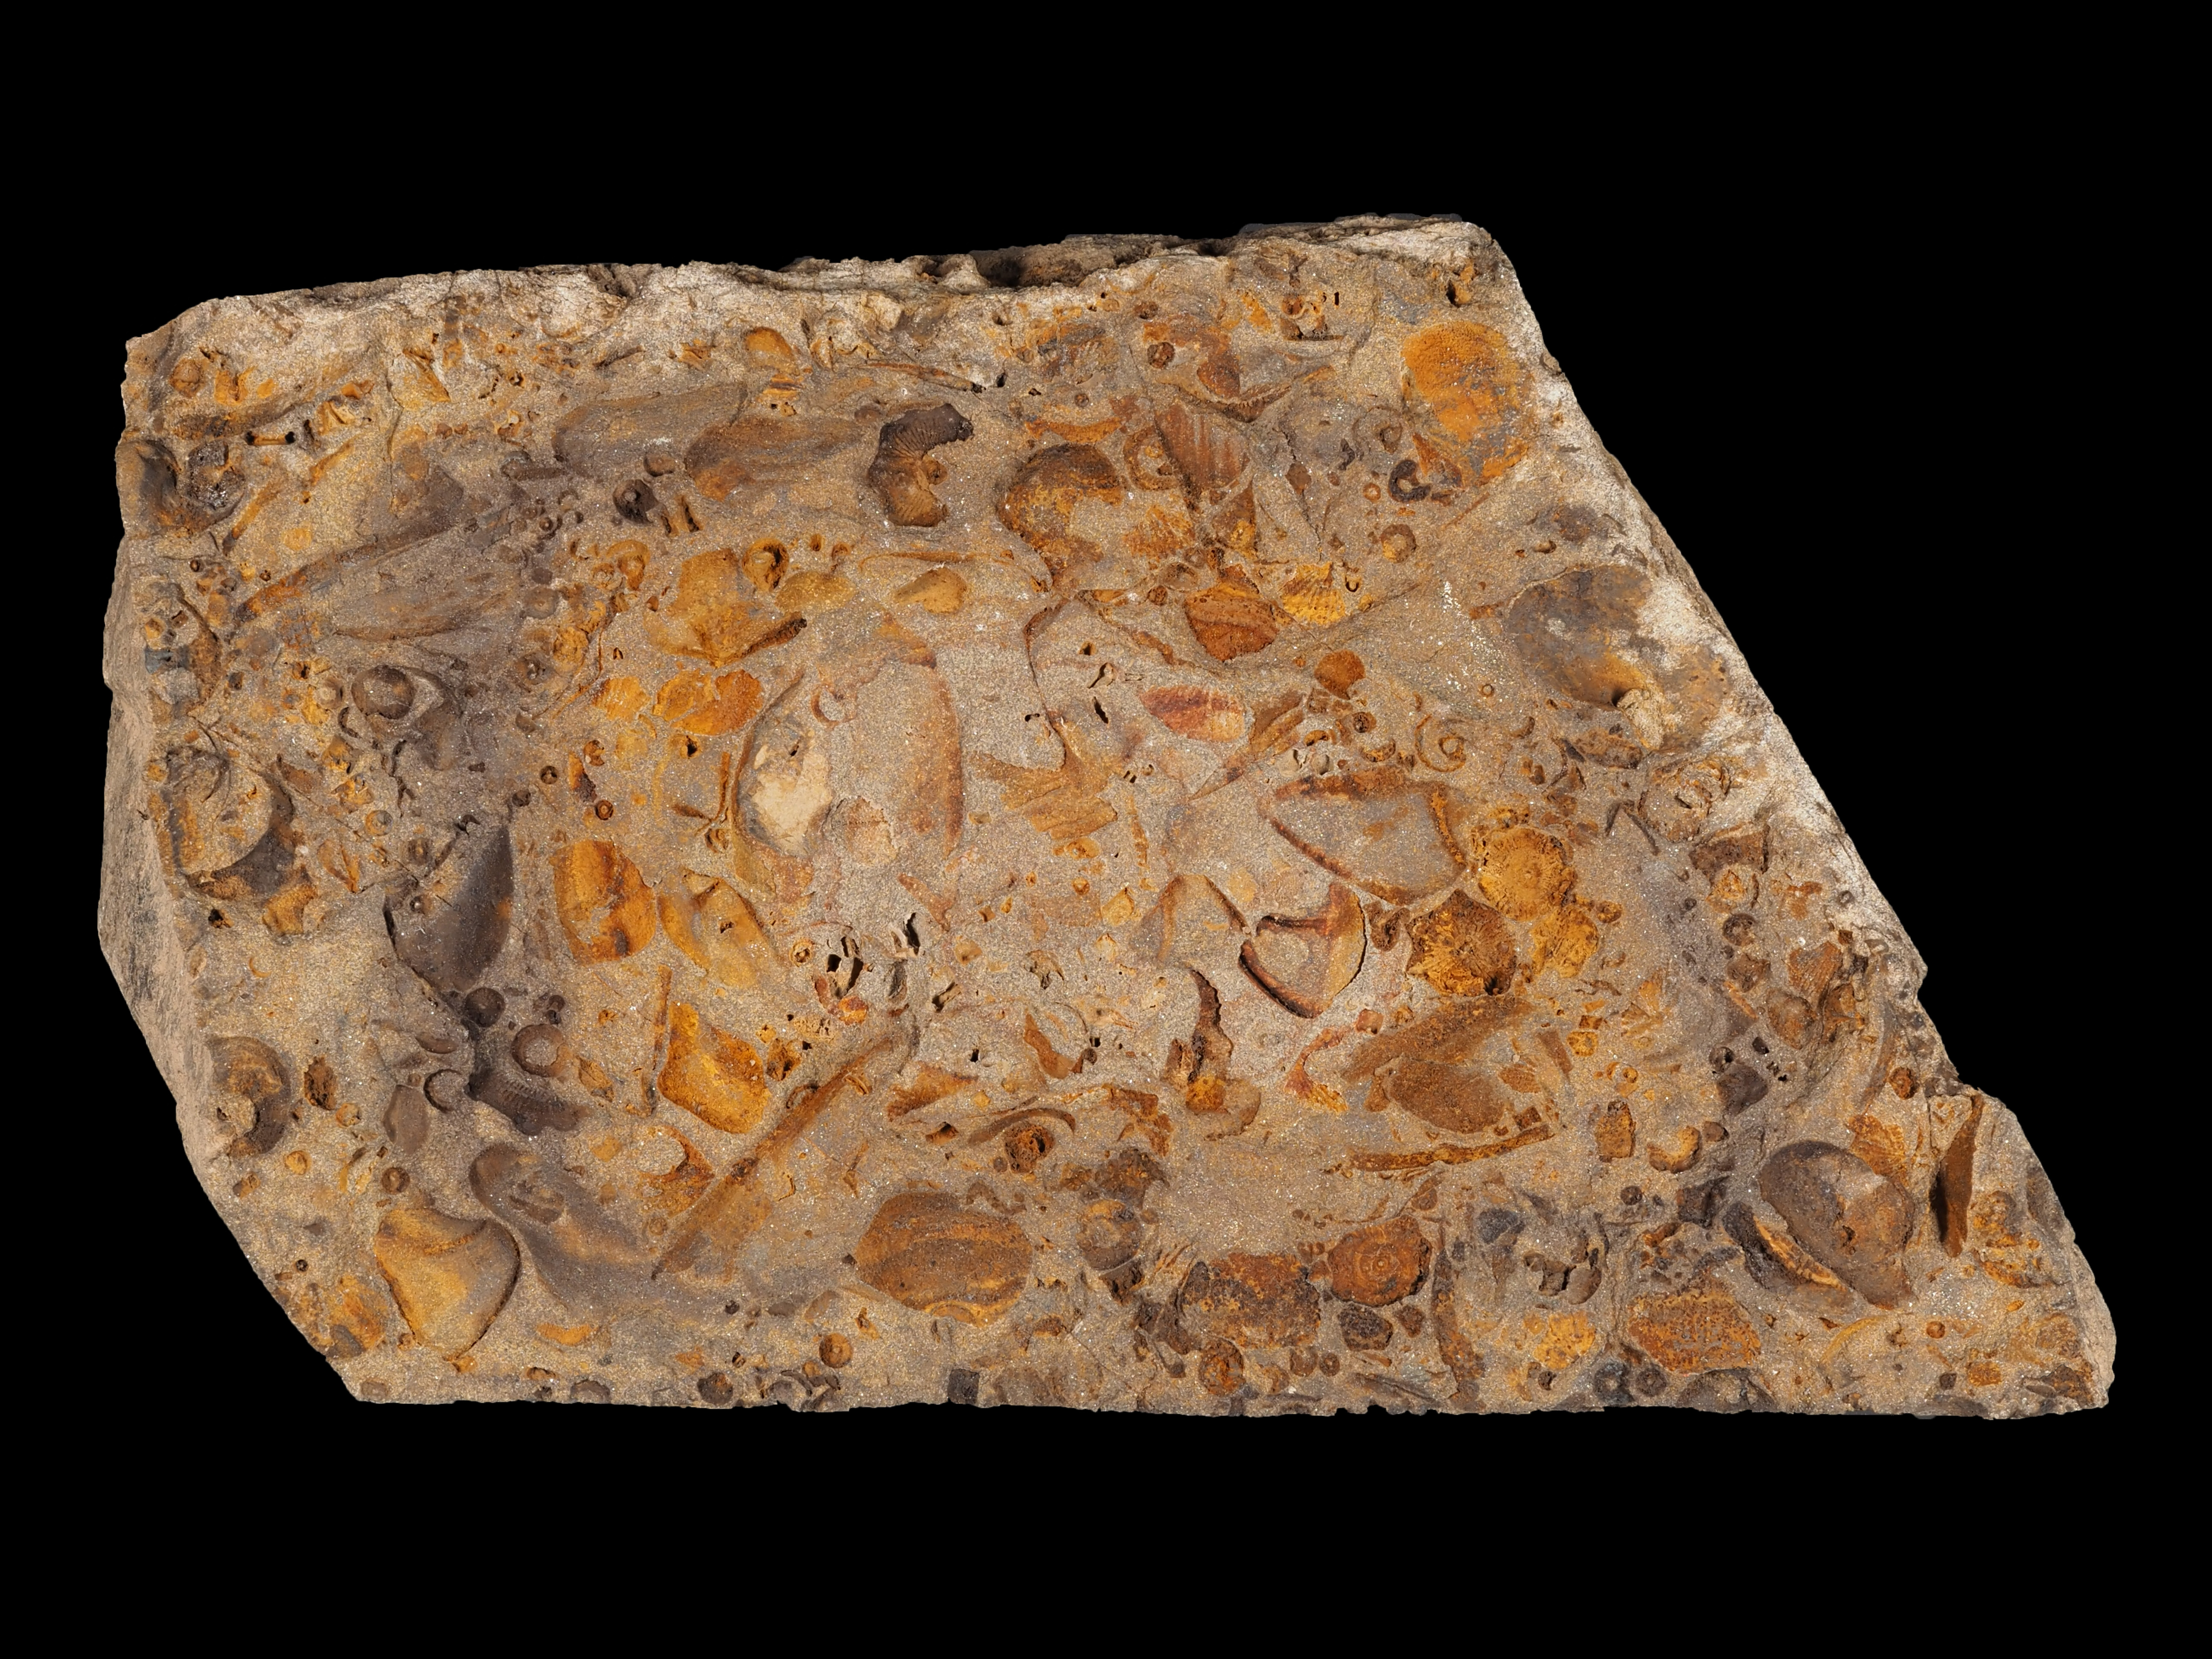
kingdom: Animalia
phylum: Mollusca
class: Bivalvia
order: Nuculanida
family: Cucullellidae
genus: Nuculites
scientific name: Nuculites
